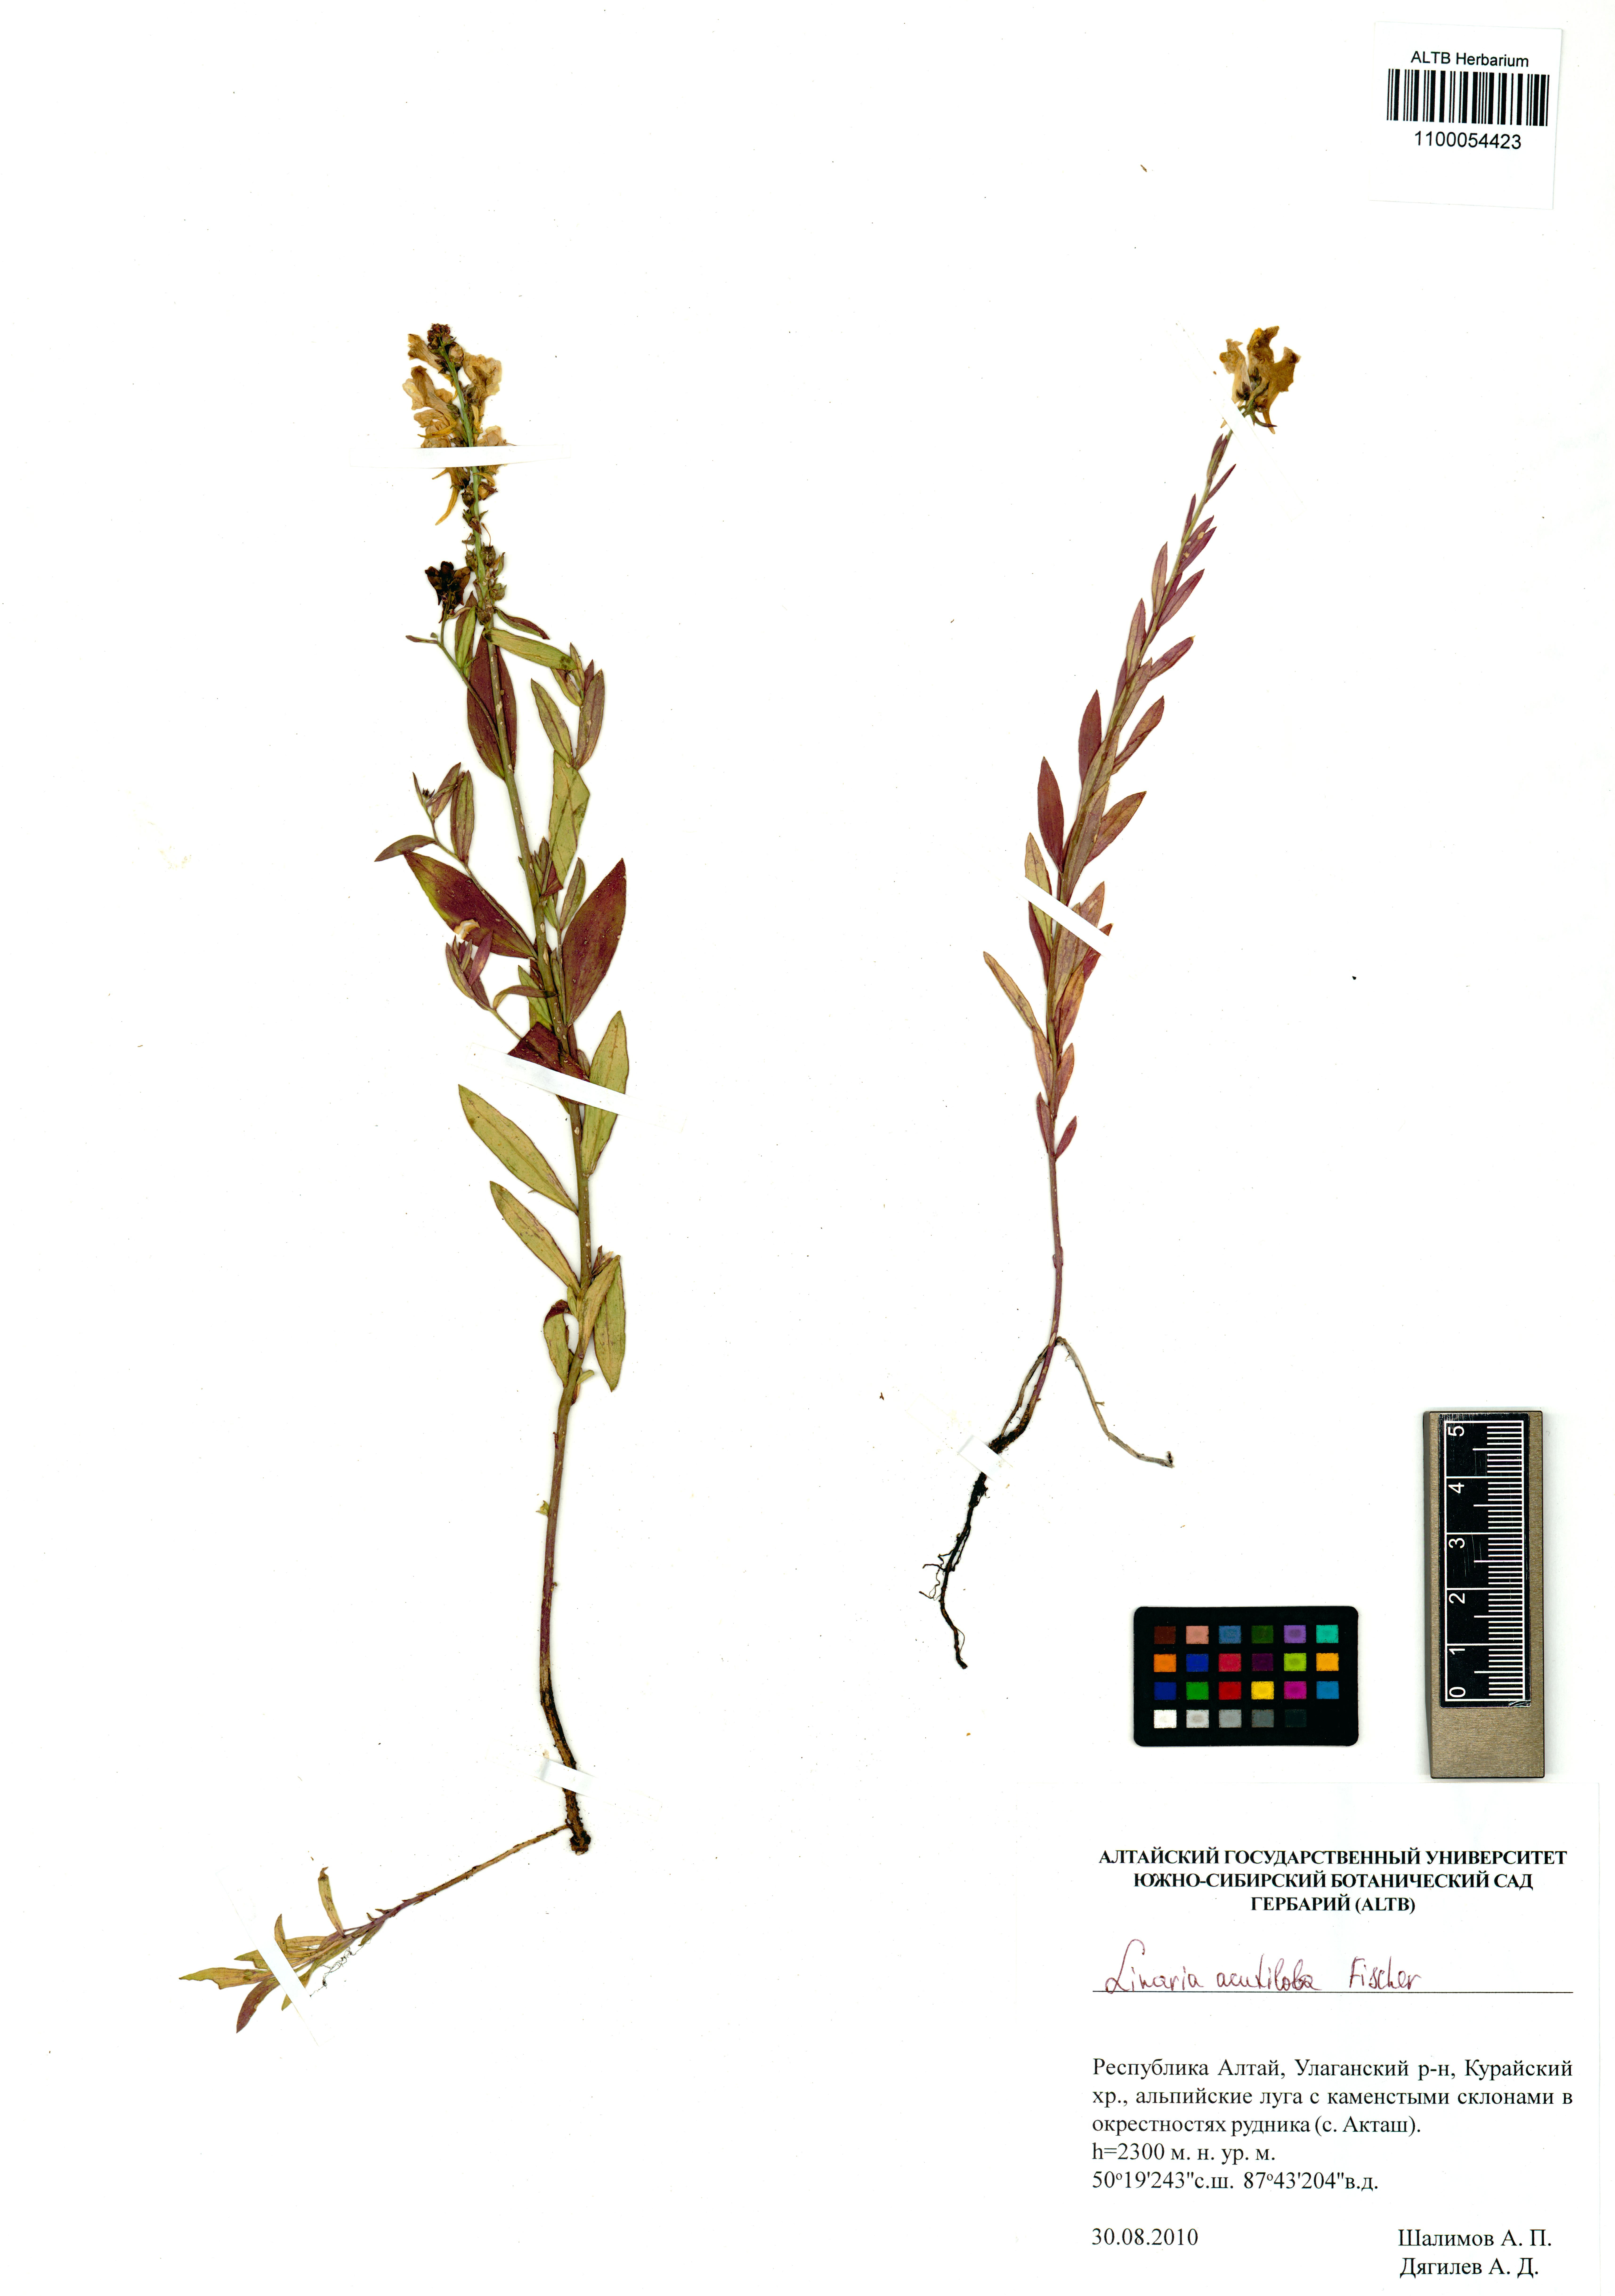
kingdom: Plantae
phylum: Tracheophyta
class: Magnoliopsida
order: Lamiales
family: Plantaginaceae
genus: Linaria
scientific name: Linaria acutiloba
